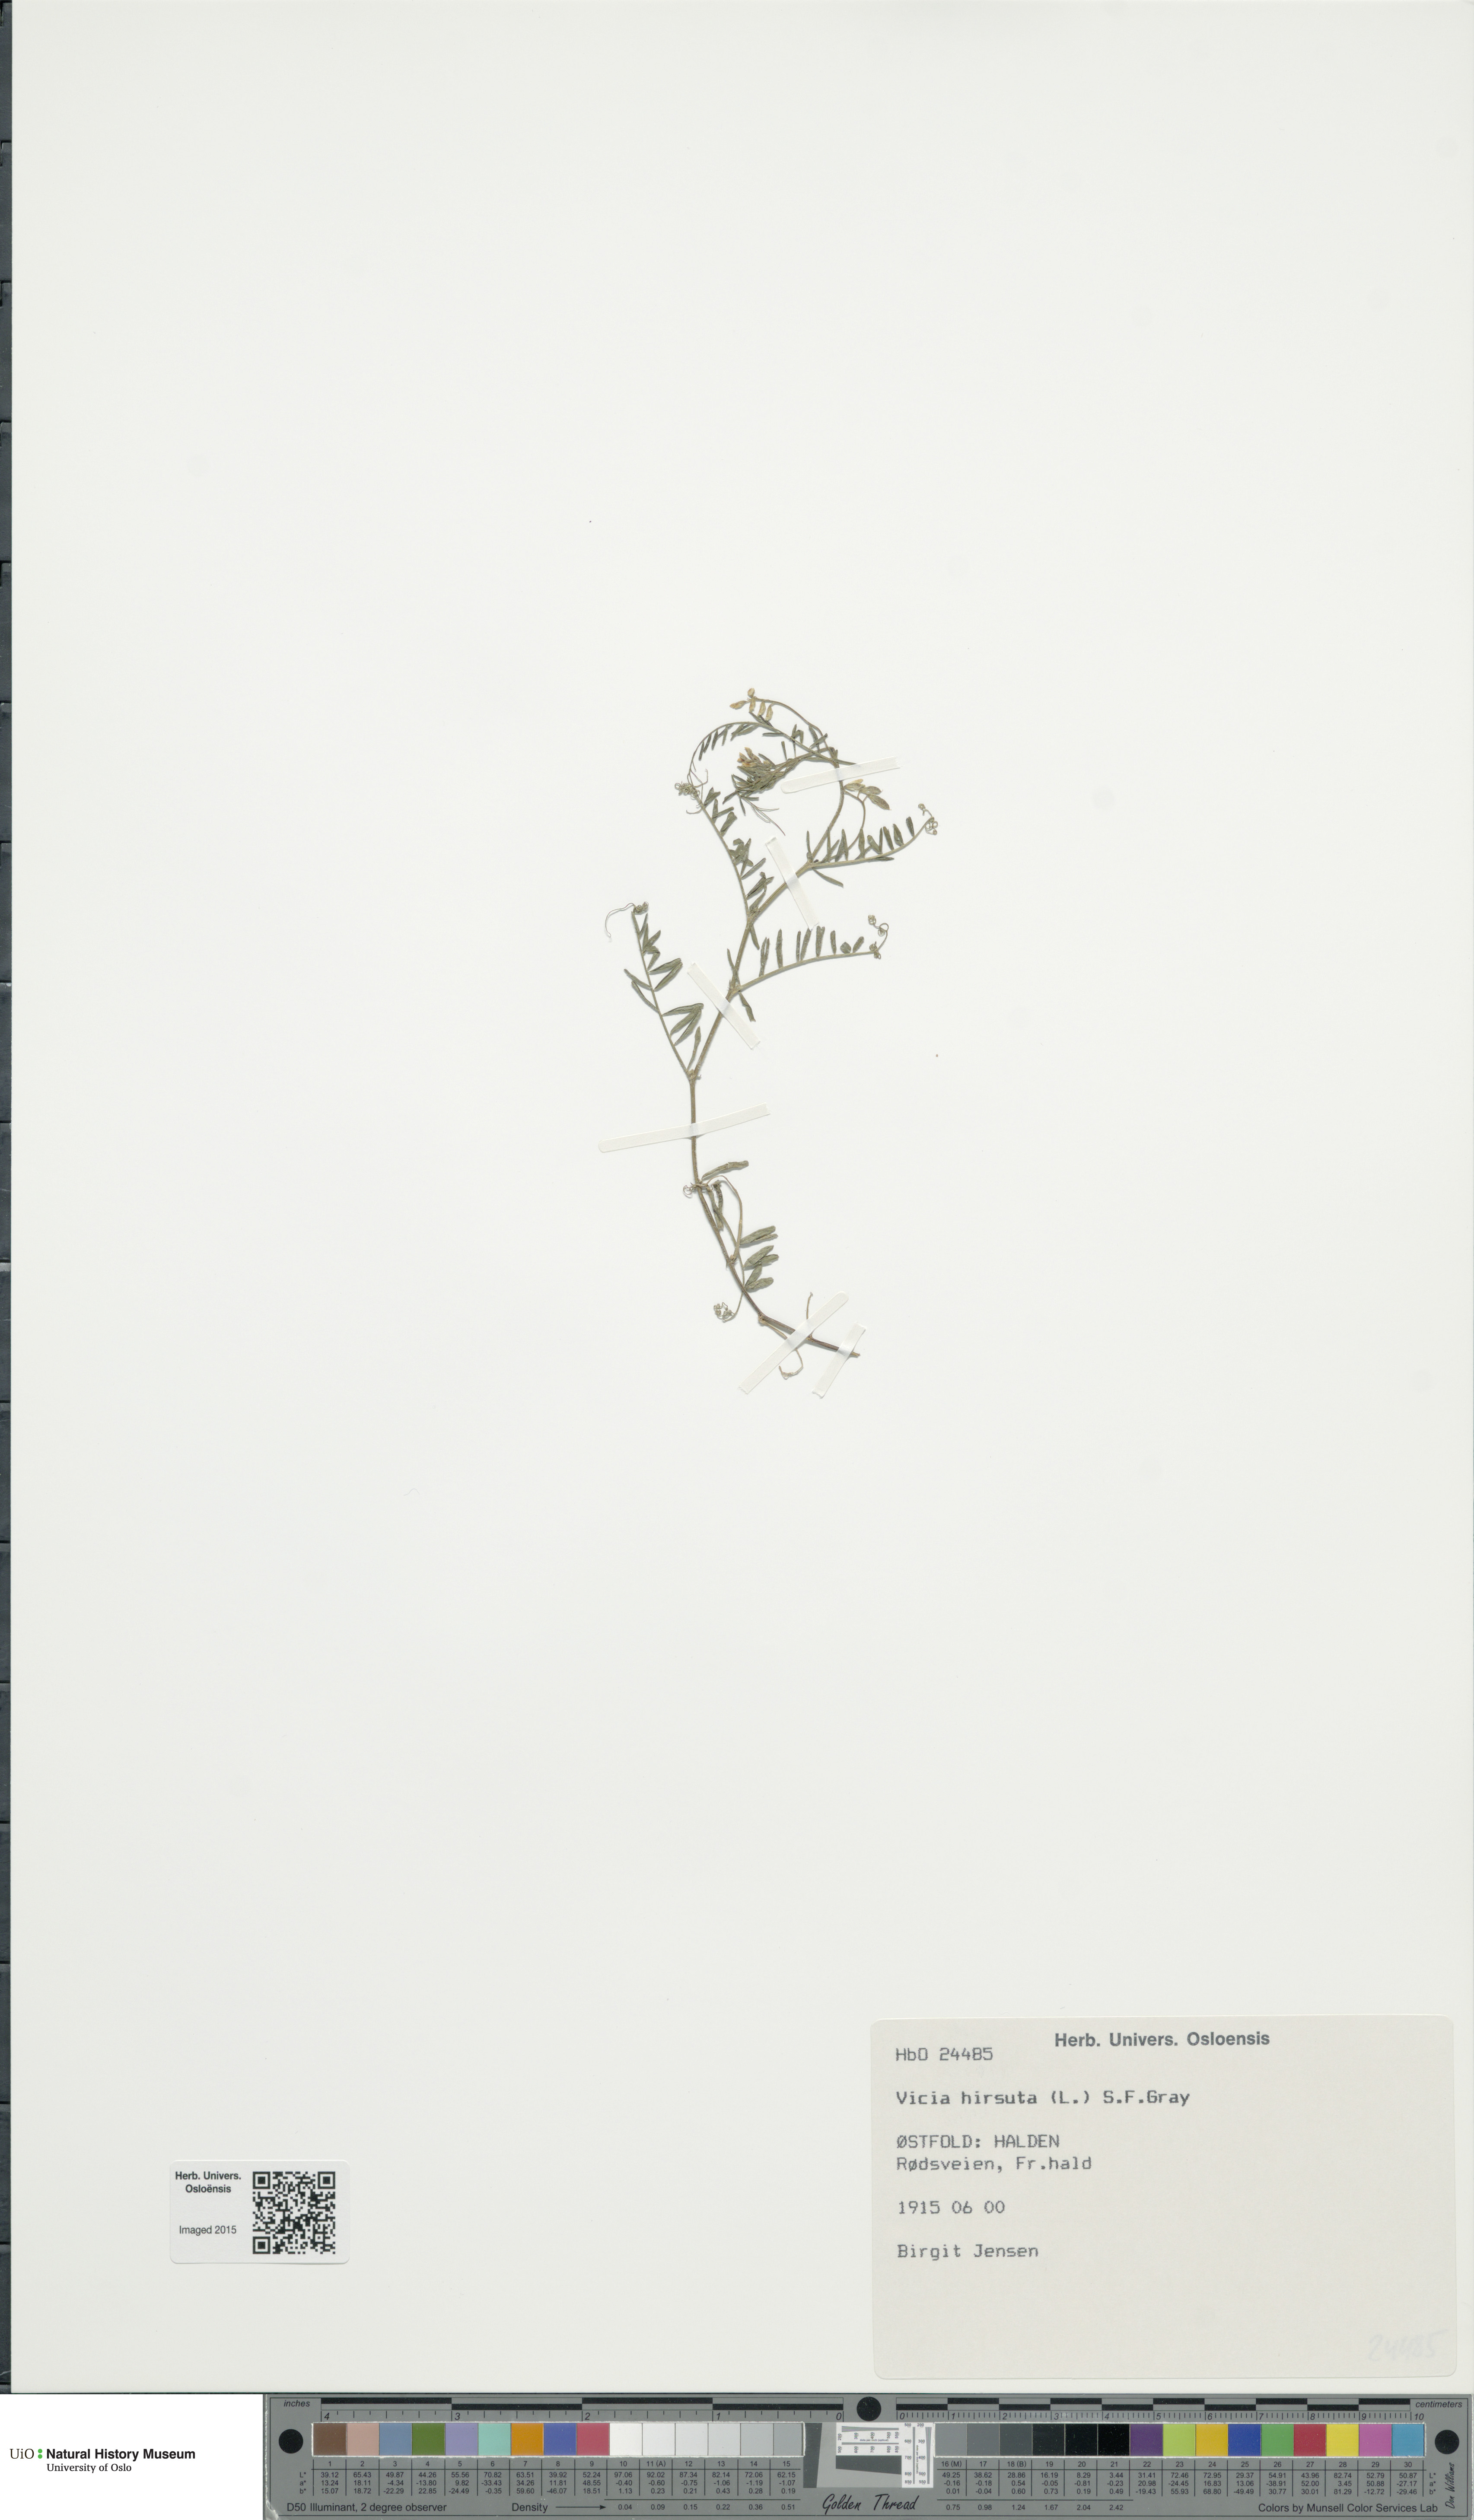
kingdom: Plantae
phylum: Tracheophyta
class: Magnoliopsida
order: Fabales
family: Fabaceae
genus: Vicia
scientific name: Vicia hirsuta
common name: Tiny vetch
